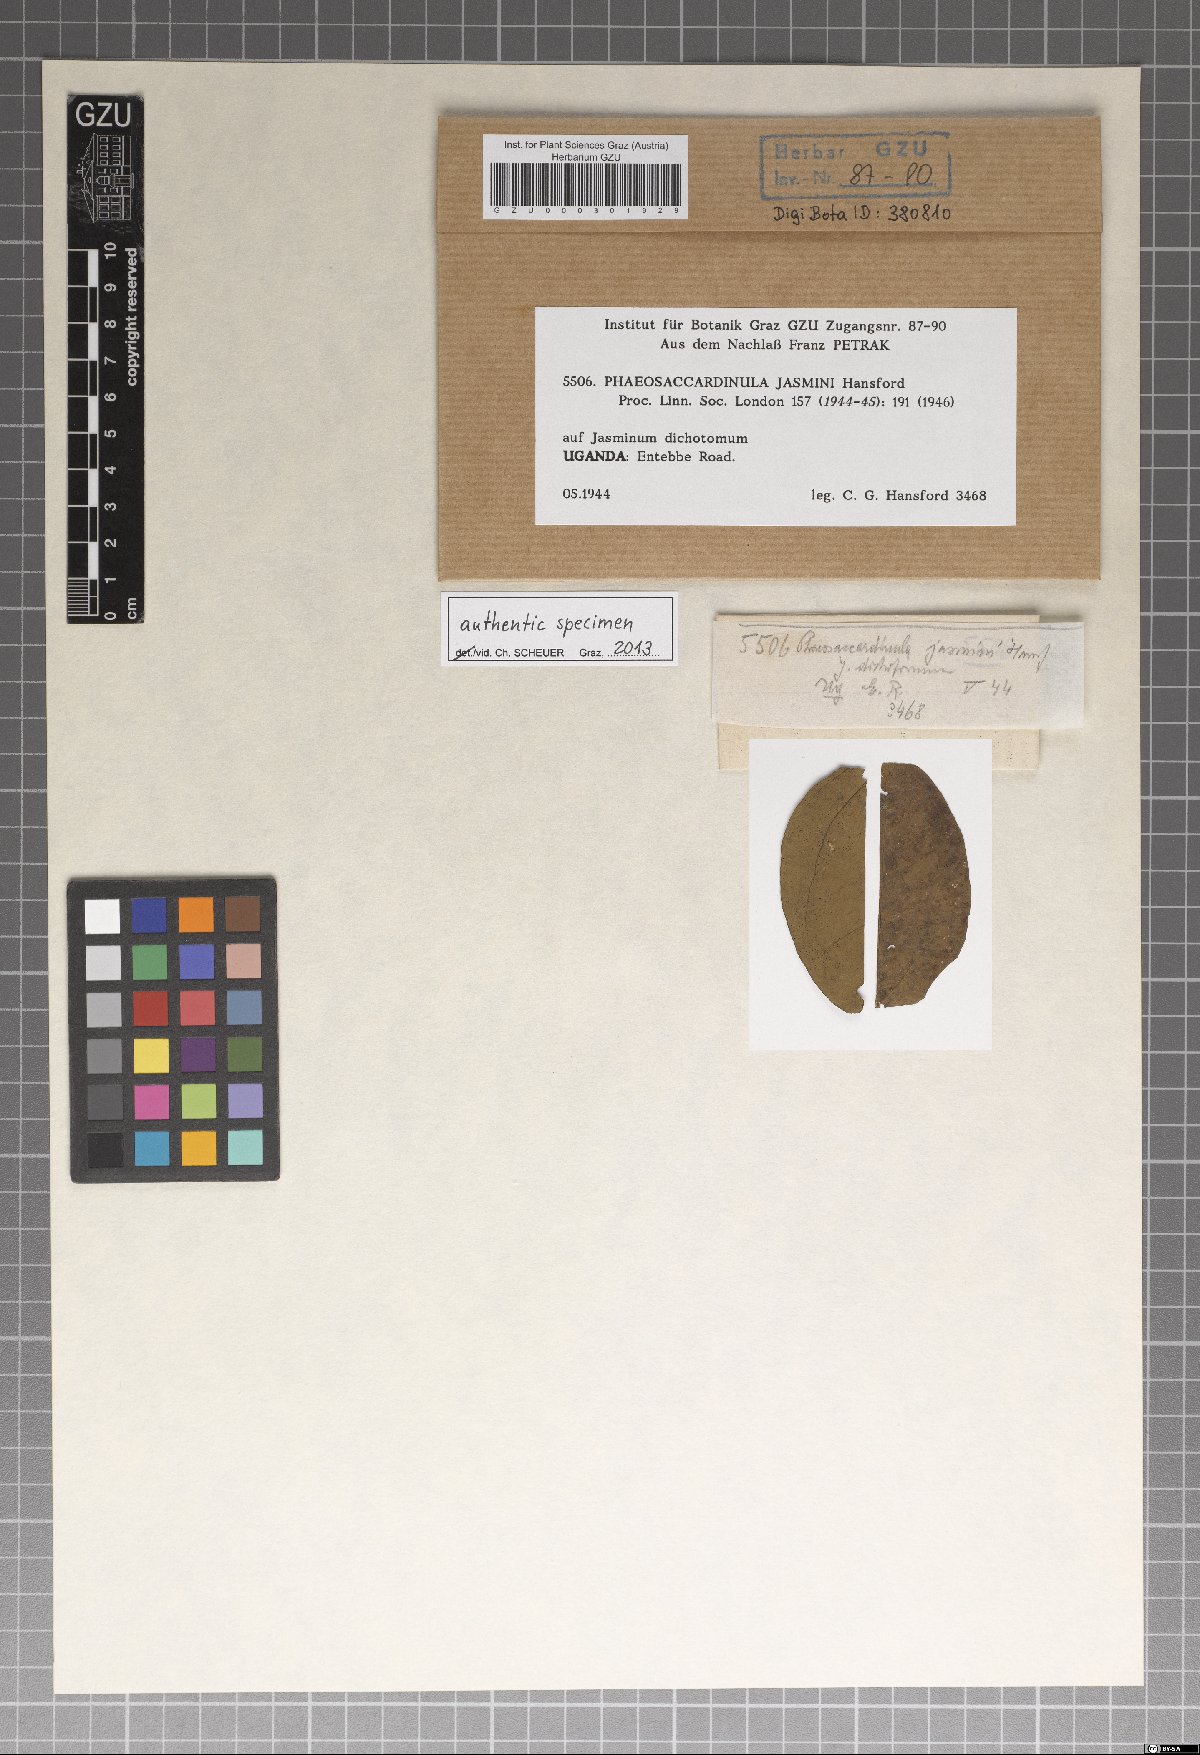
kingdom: Fungi
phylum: Ascomycota
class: Eurotiomycetes
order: Chaetothyriales
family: Chaetothyriaceae
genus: Phaeosaccardinula
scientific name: Phaeosaccardinula jasmini
